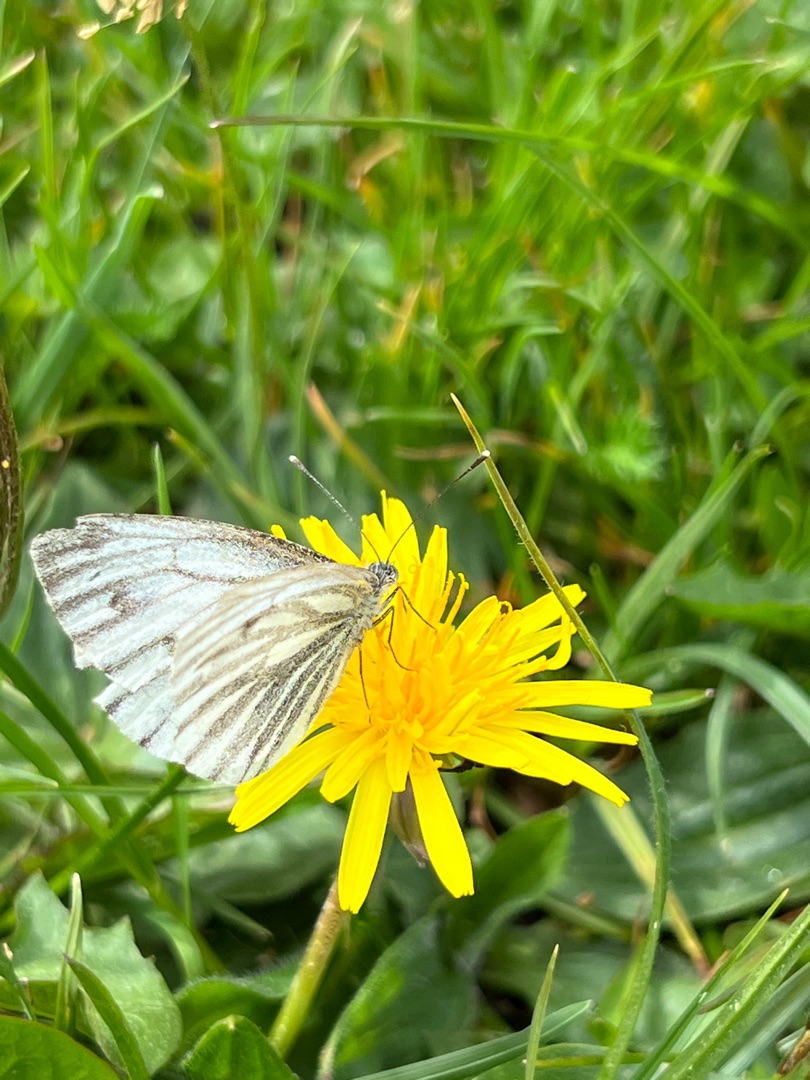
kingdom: Animalia
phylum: Arthropoda
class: Insecta
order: Lepidoptera
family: Pieridae
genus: Pieris
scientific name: Pieris napi
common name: Grønåret kålsommerfugl
